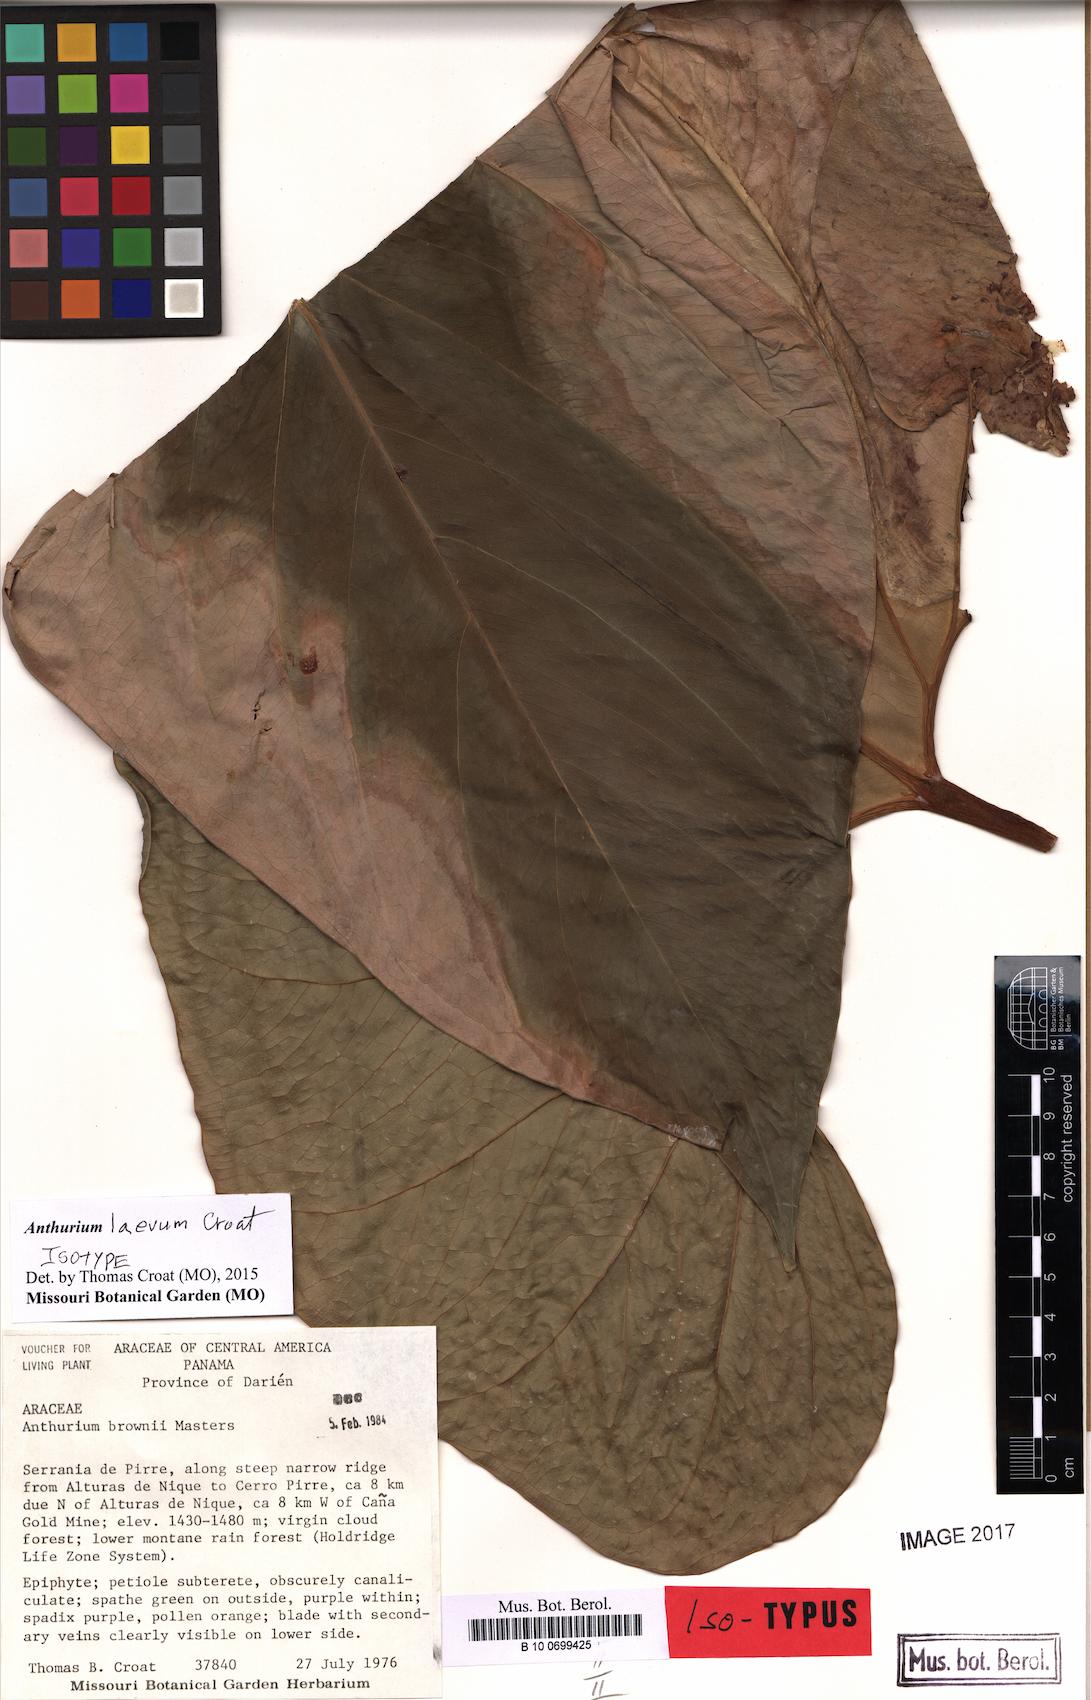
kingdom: Plantae
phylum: Tracheophyta
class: Liliopsida
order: Alismatales
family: Araceae
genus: Anthurium
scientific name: Anthurium laevum
